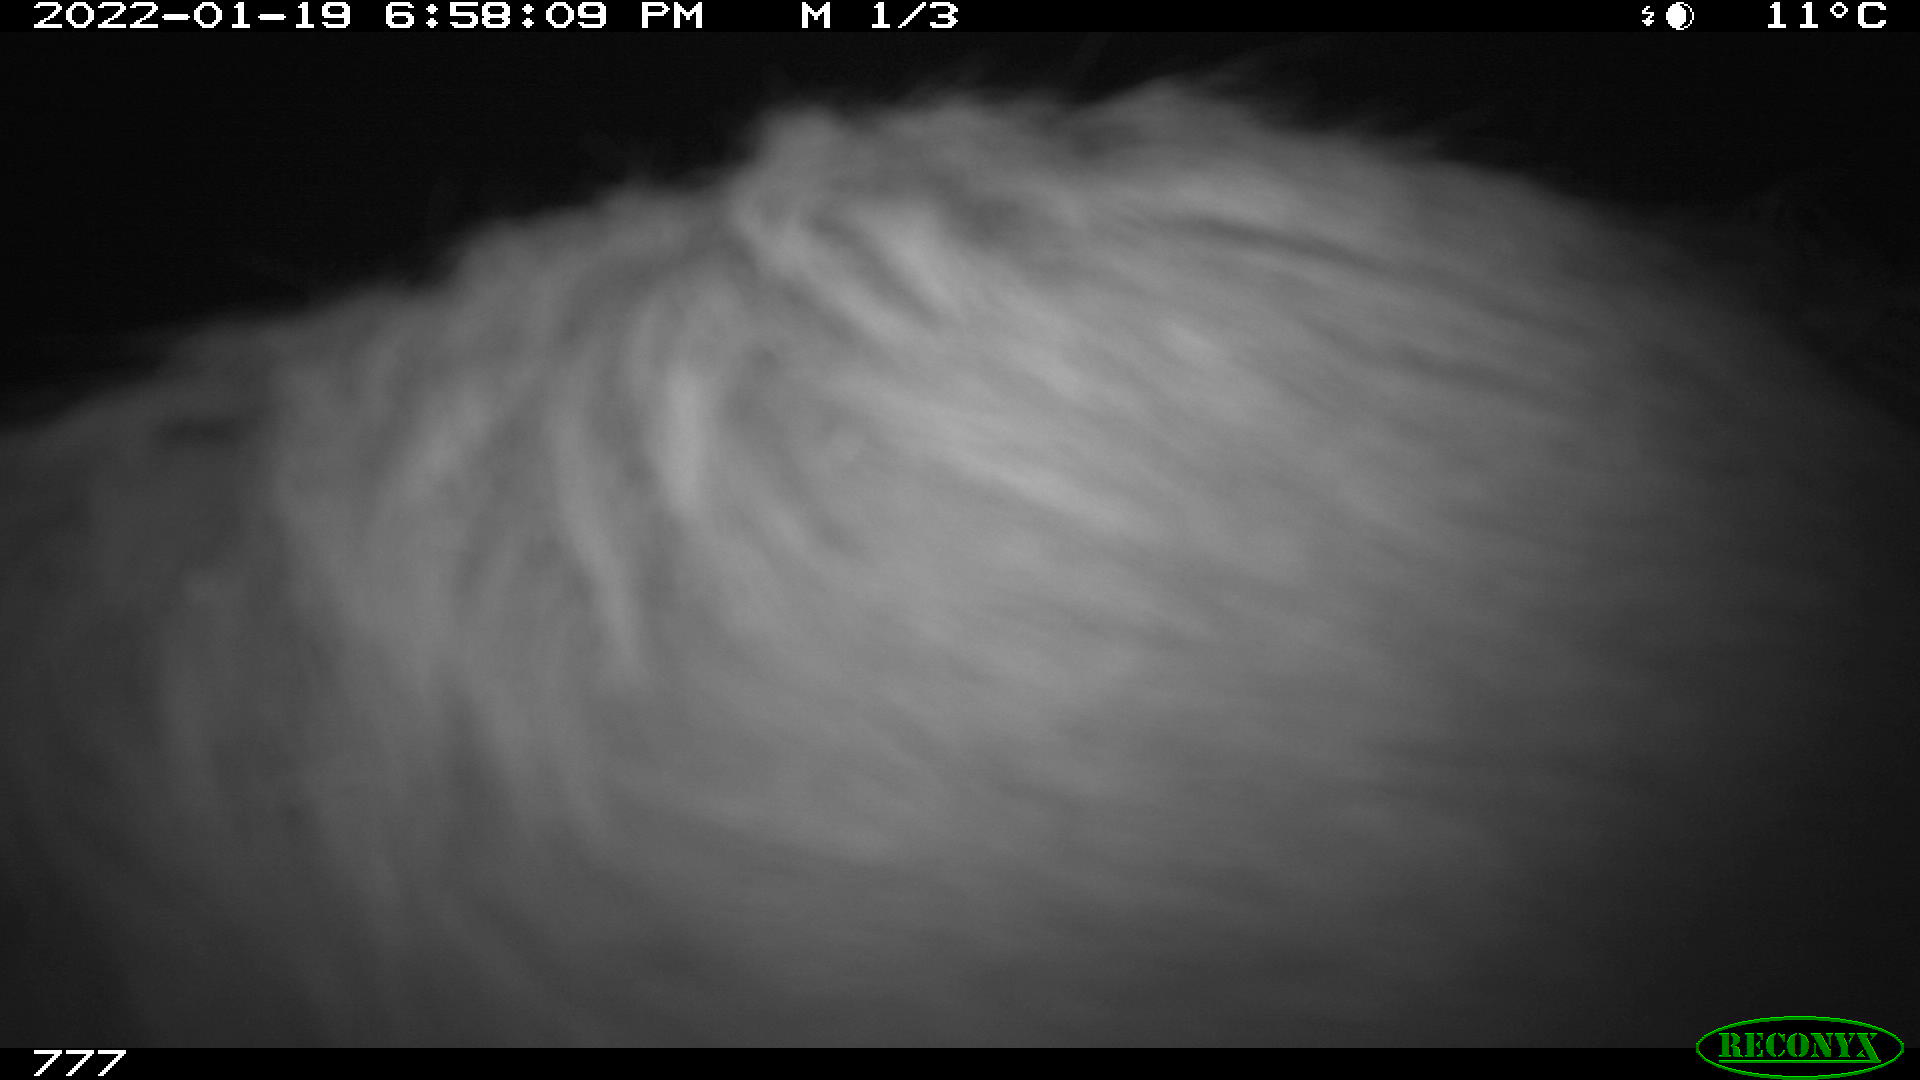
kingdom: Animalia
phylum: Chordata
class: Mammalia
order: Artiodactyla
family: Bovidae
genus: Bos
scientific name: Bos taurus
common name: Domesticated cattle
